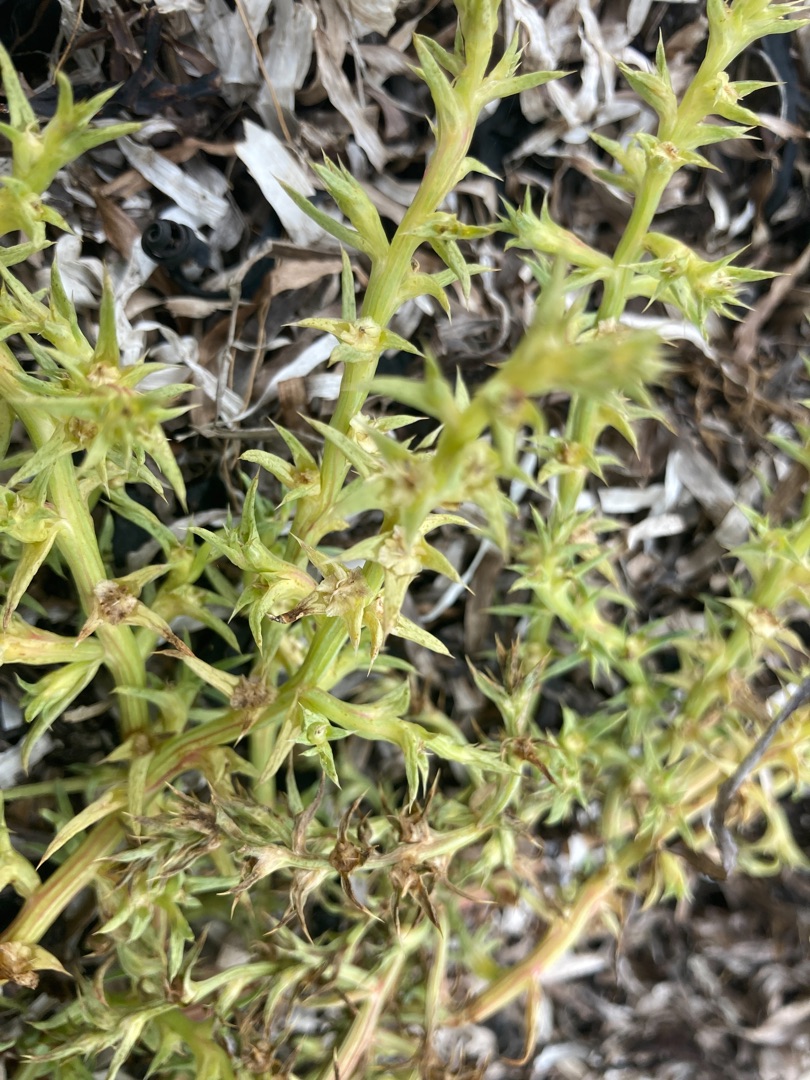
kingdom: Plantae
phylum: Tracheophyta
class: Magnoliopsida
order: Caryophyllales
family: Amaranthaceae
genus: Salsola
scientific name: Salsola kali
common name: Sodaurt
